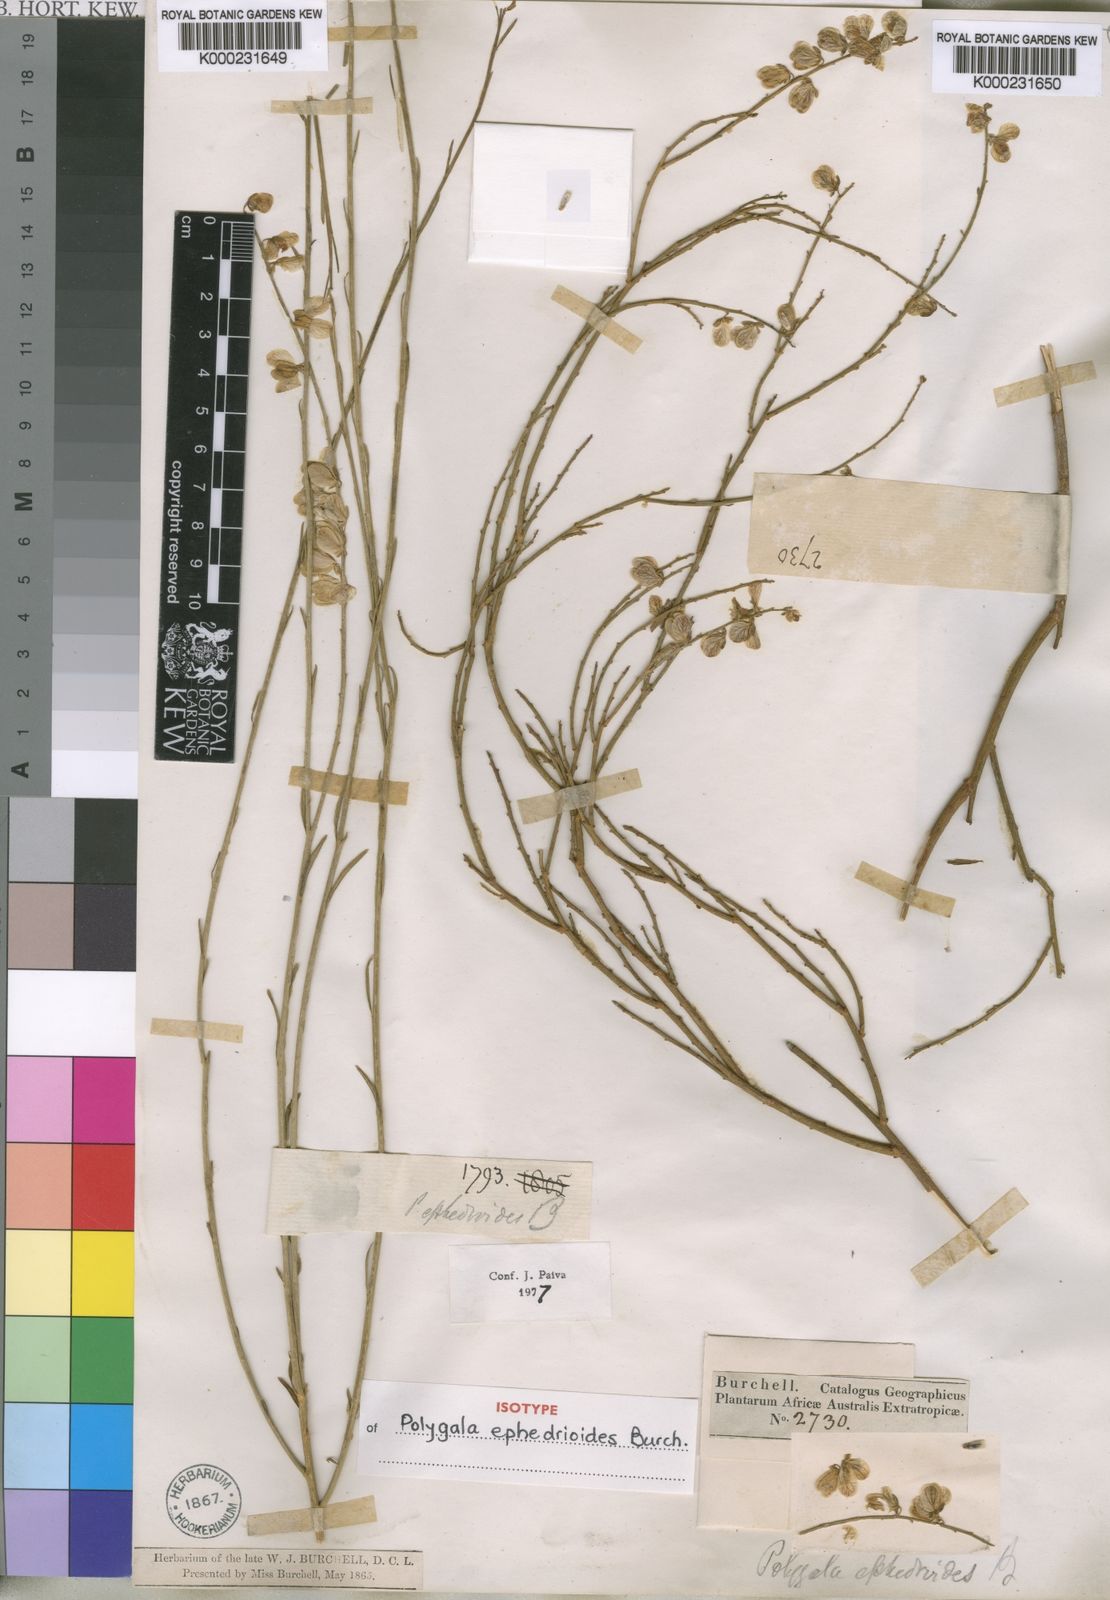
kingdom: Plantae
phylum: Tracheophyta
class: Magnoliopsida
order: Fabales
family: Polygalaceae
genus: Polygala
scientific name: Polygala ephedroides
